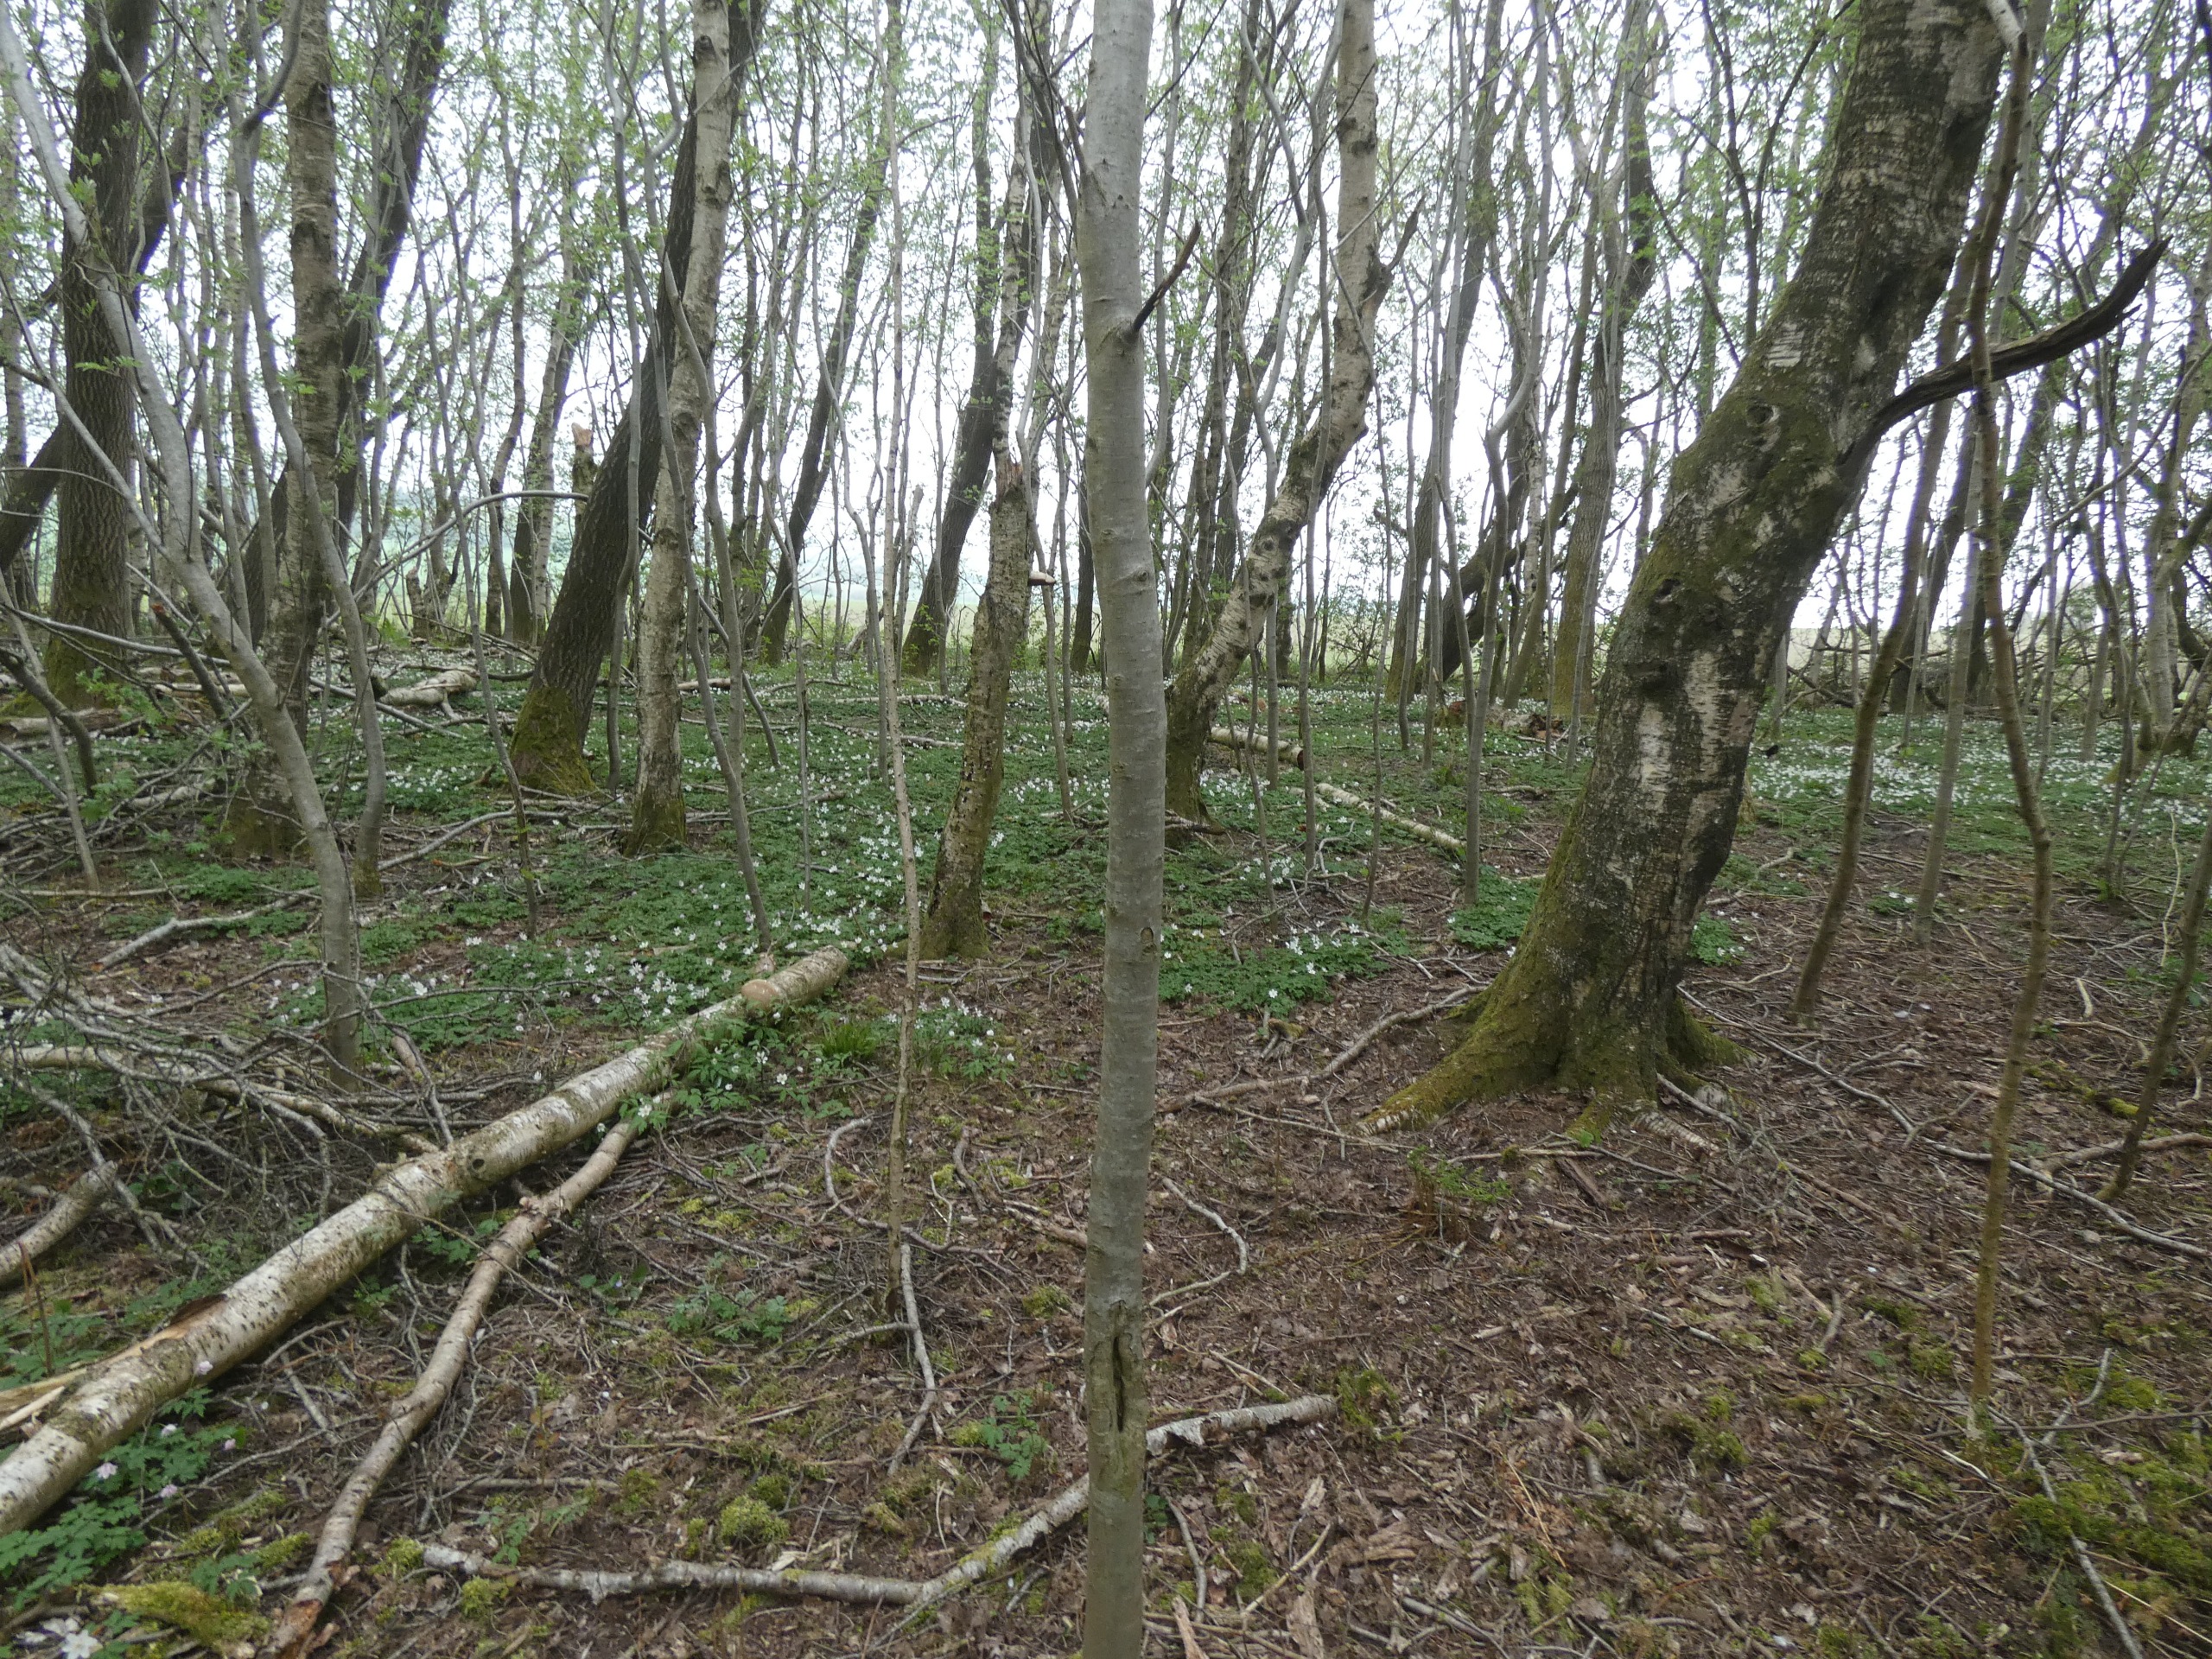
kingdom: Plantae
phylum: Tracheophyta
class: Magnoliopsida
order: Ranunculales
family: Ranunculaceae
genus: Anemone
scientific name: Anemone nemorosa
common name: Hvid anemone
